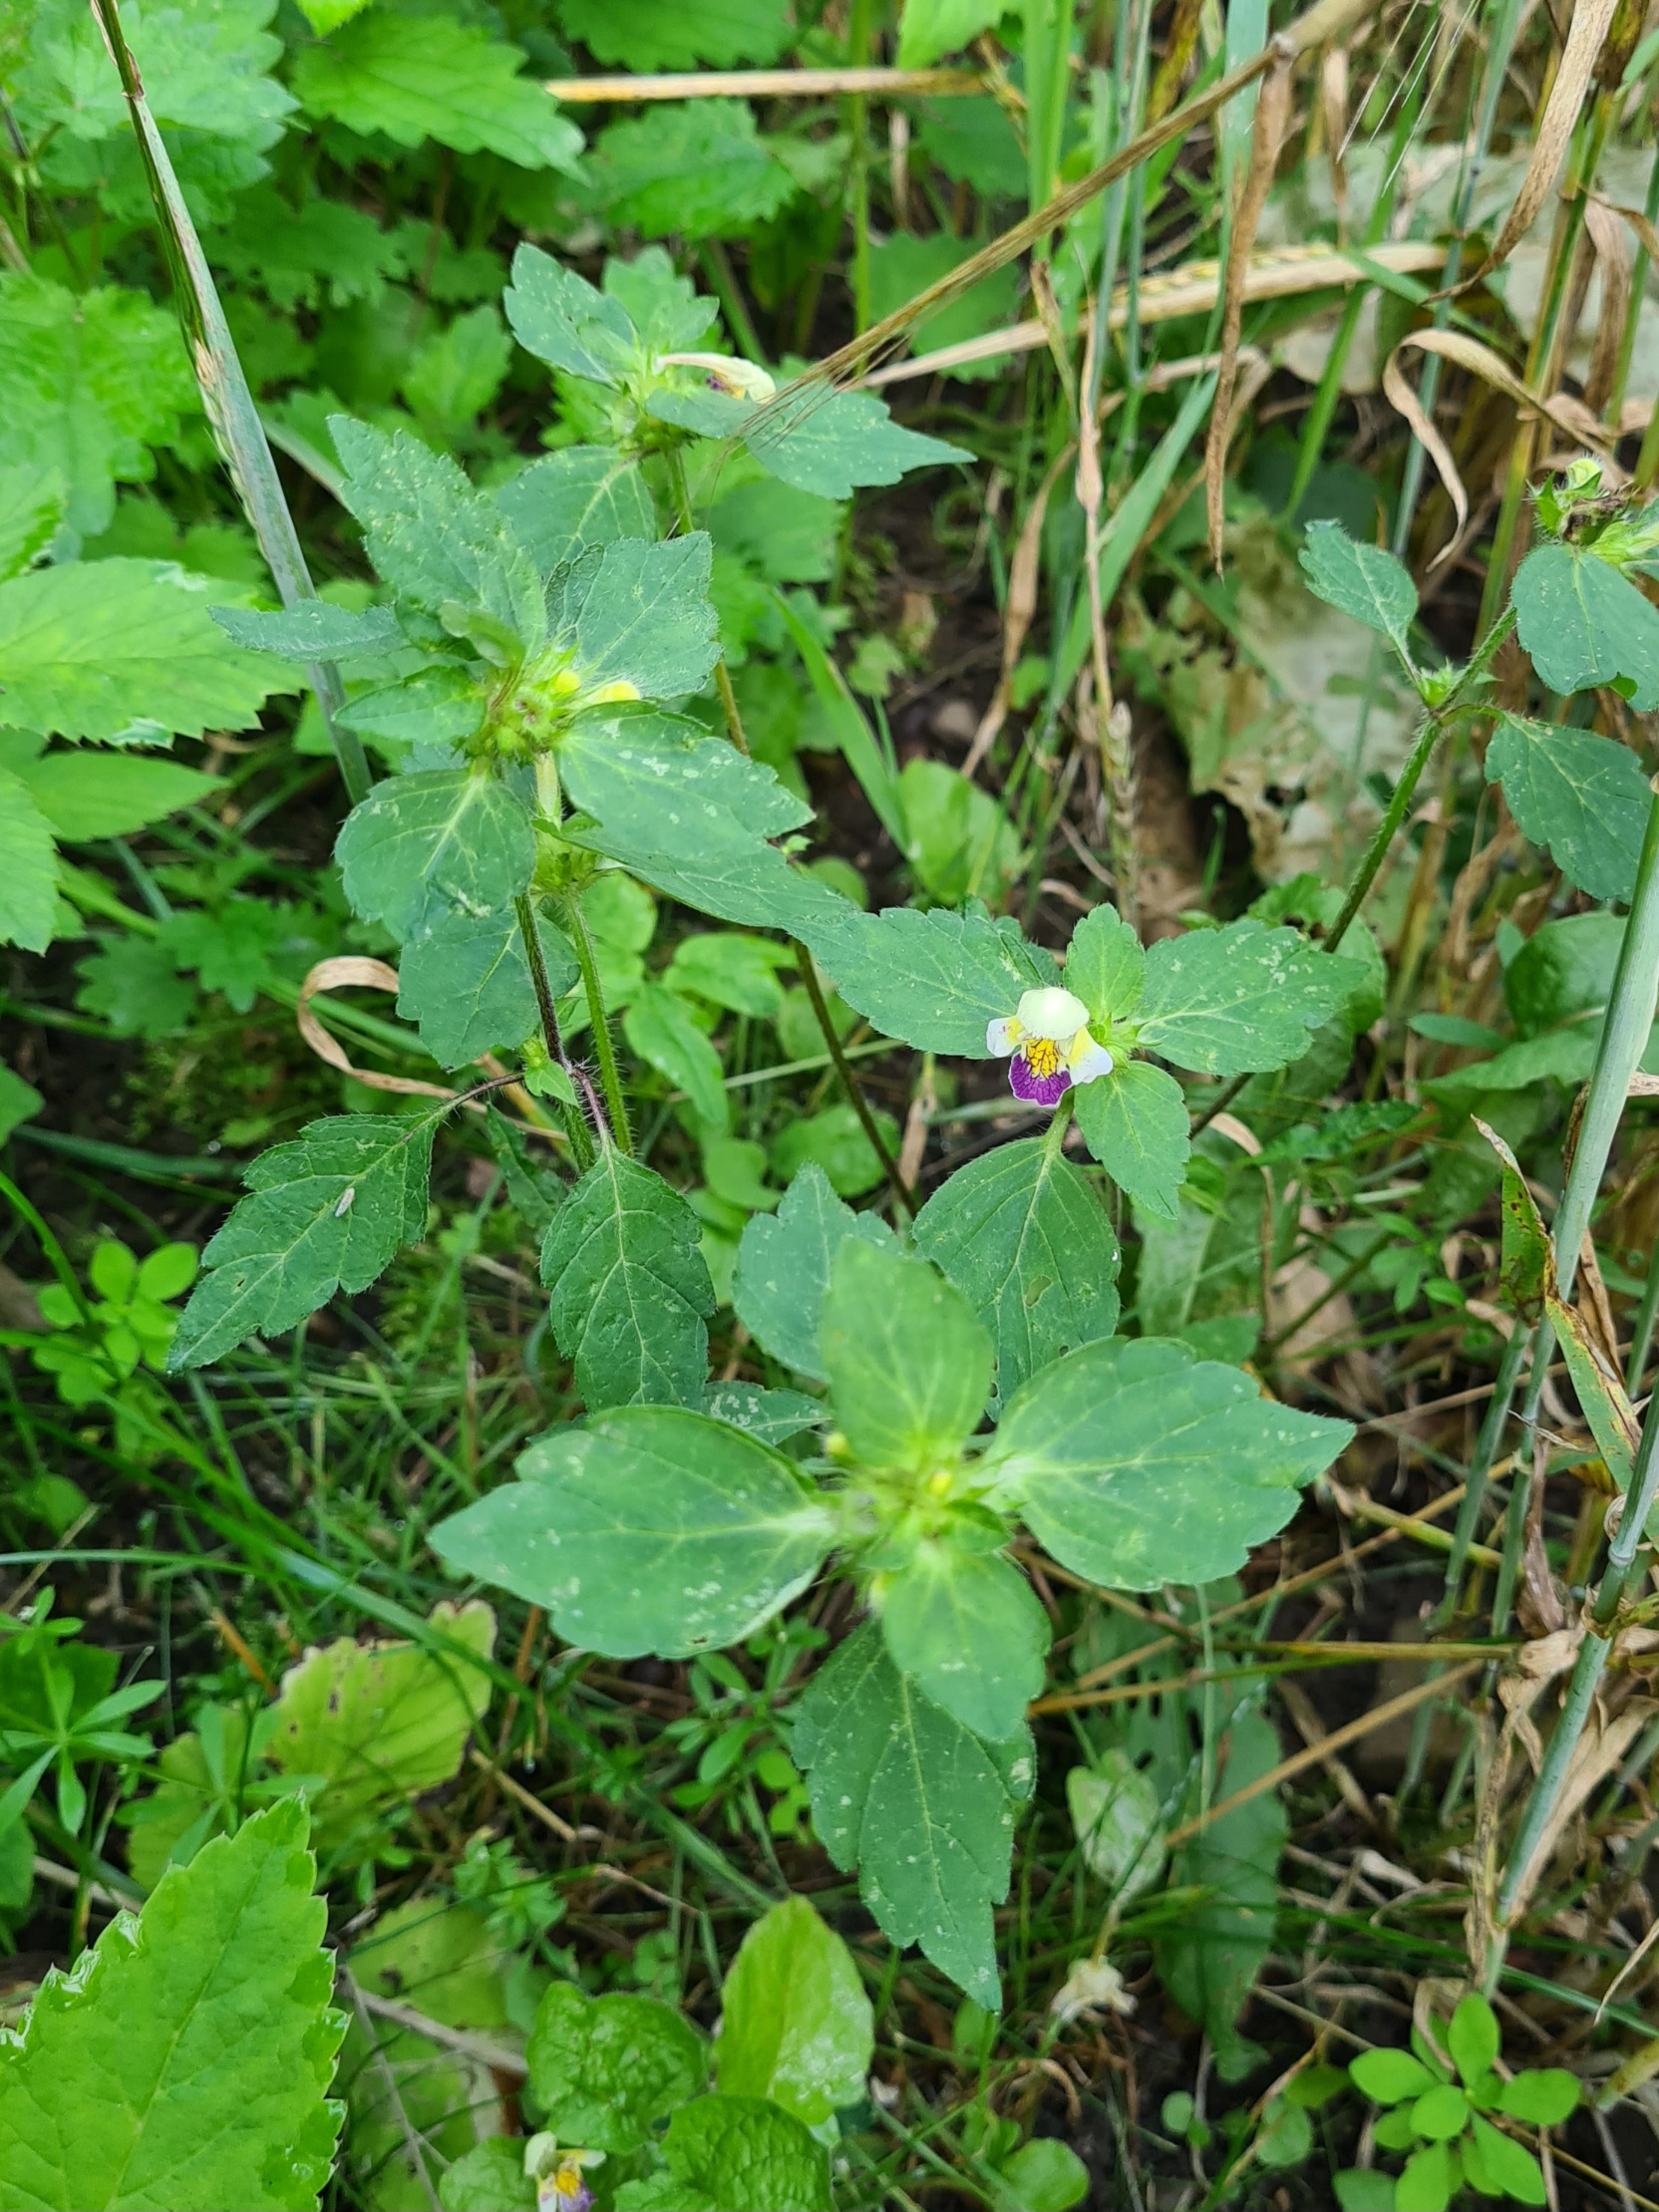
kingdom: Plantae
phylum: Tracheophyta
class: Magnoliopsida
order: Lamiales
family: Lamiaceae
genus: Galeopsis
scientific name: Galeopsis speciosa
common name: Hamp-hanekro
